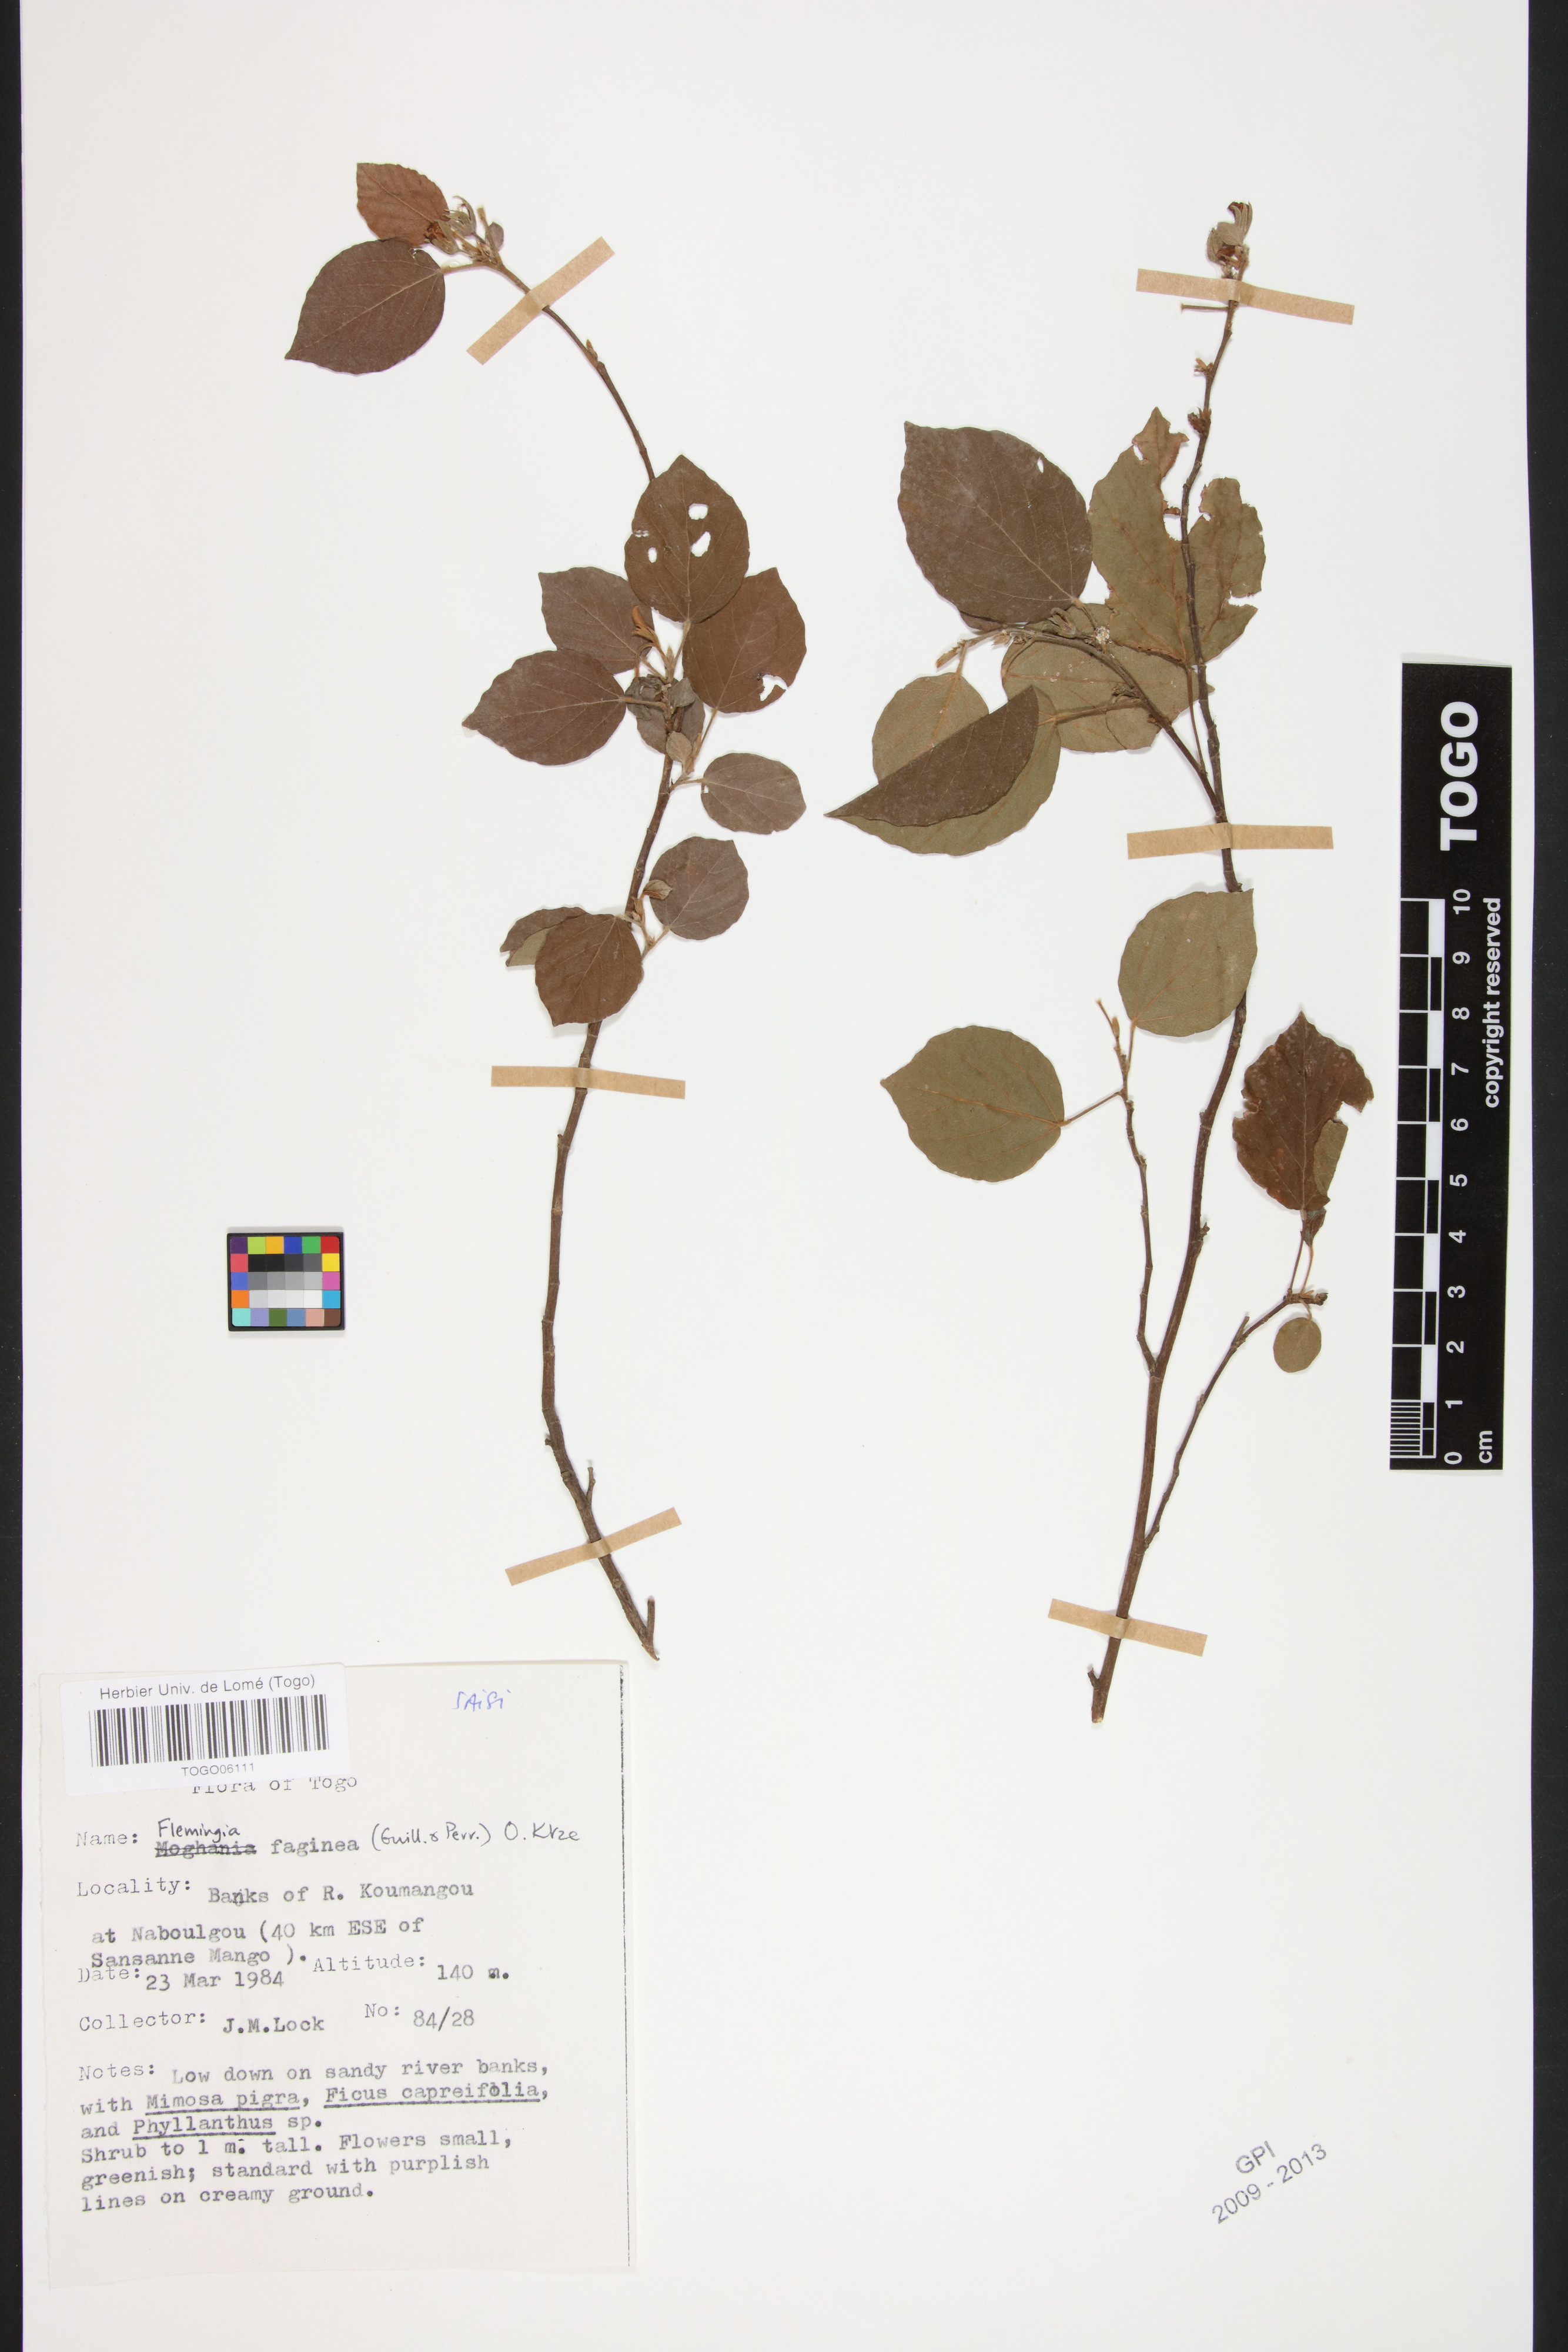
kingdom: Plantae
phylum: Tracheophyta
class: Magnoliopsida
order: Fabales
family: Fabaceae
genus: Flemingia
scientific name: Flemingia faginea
